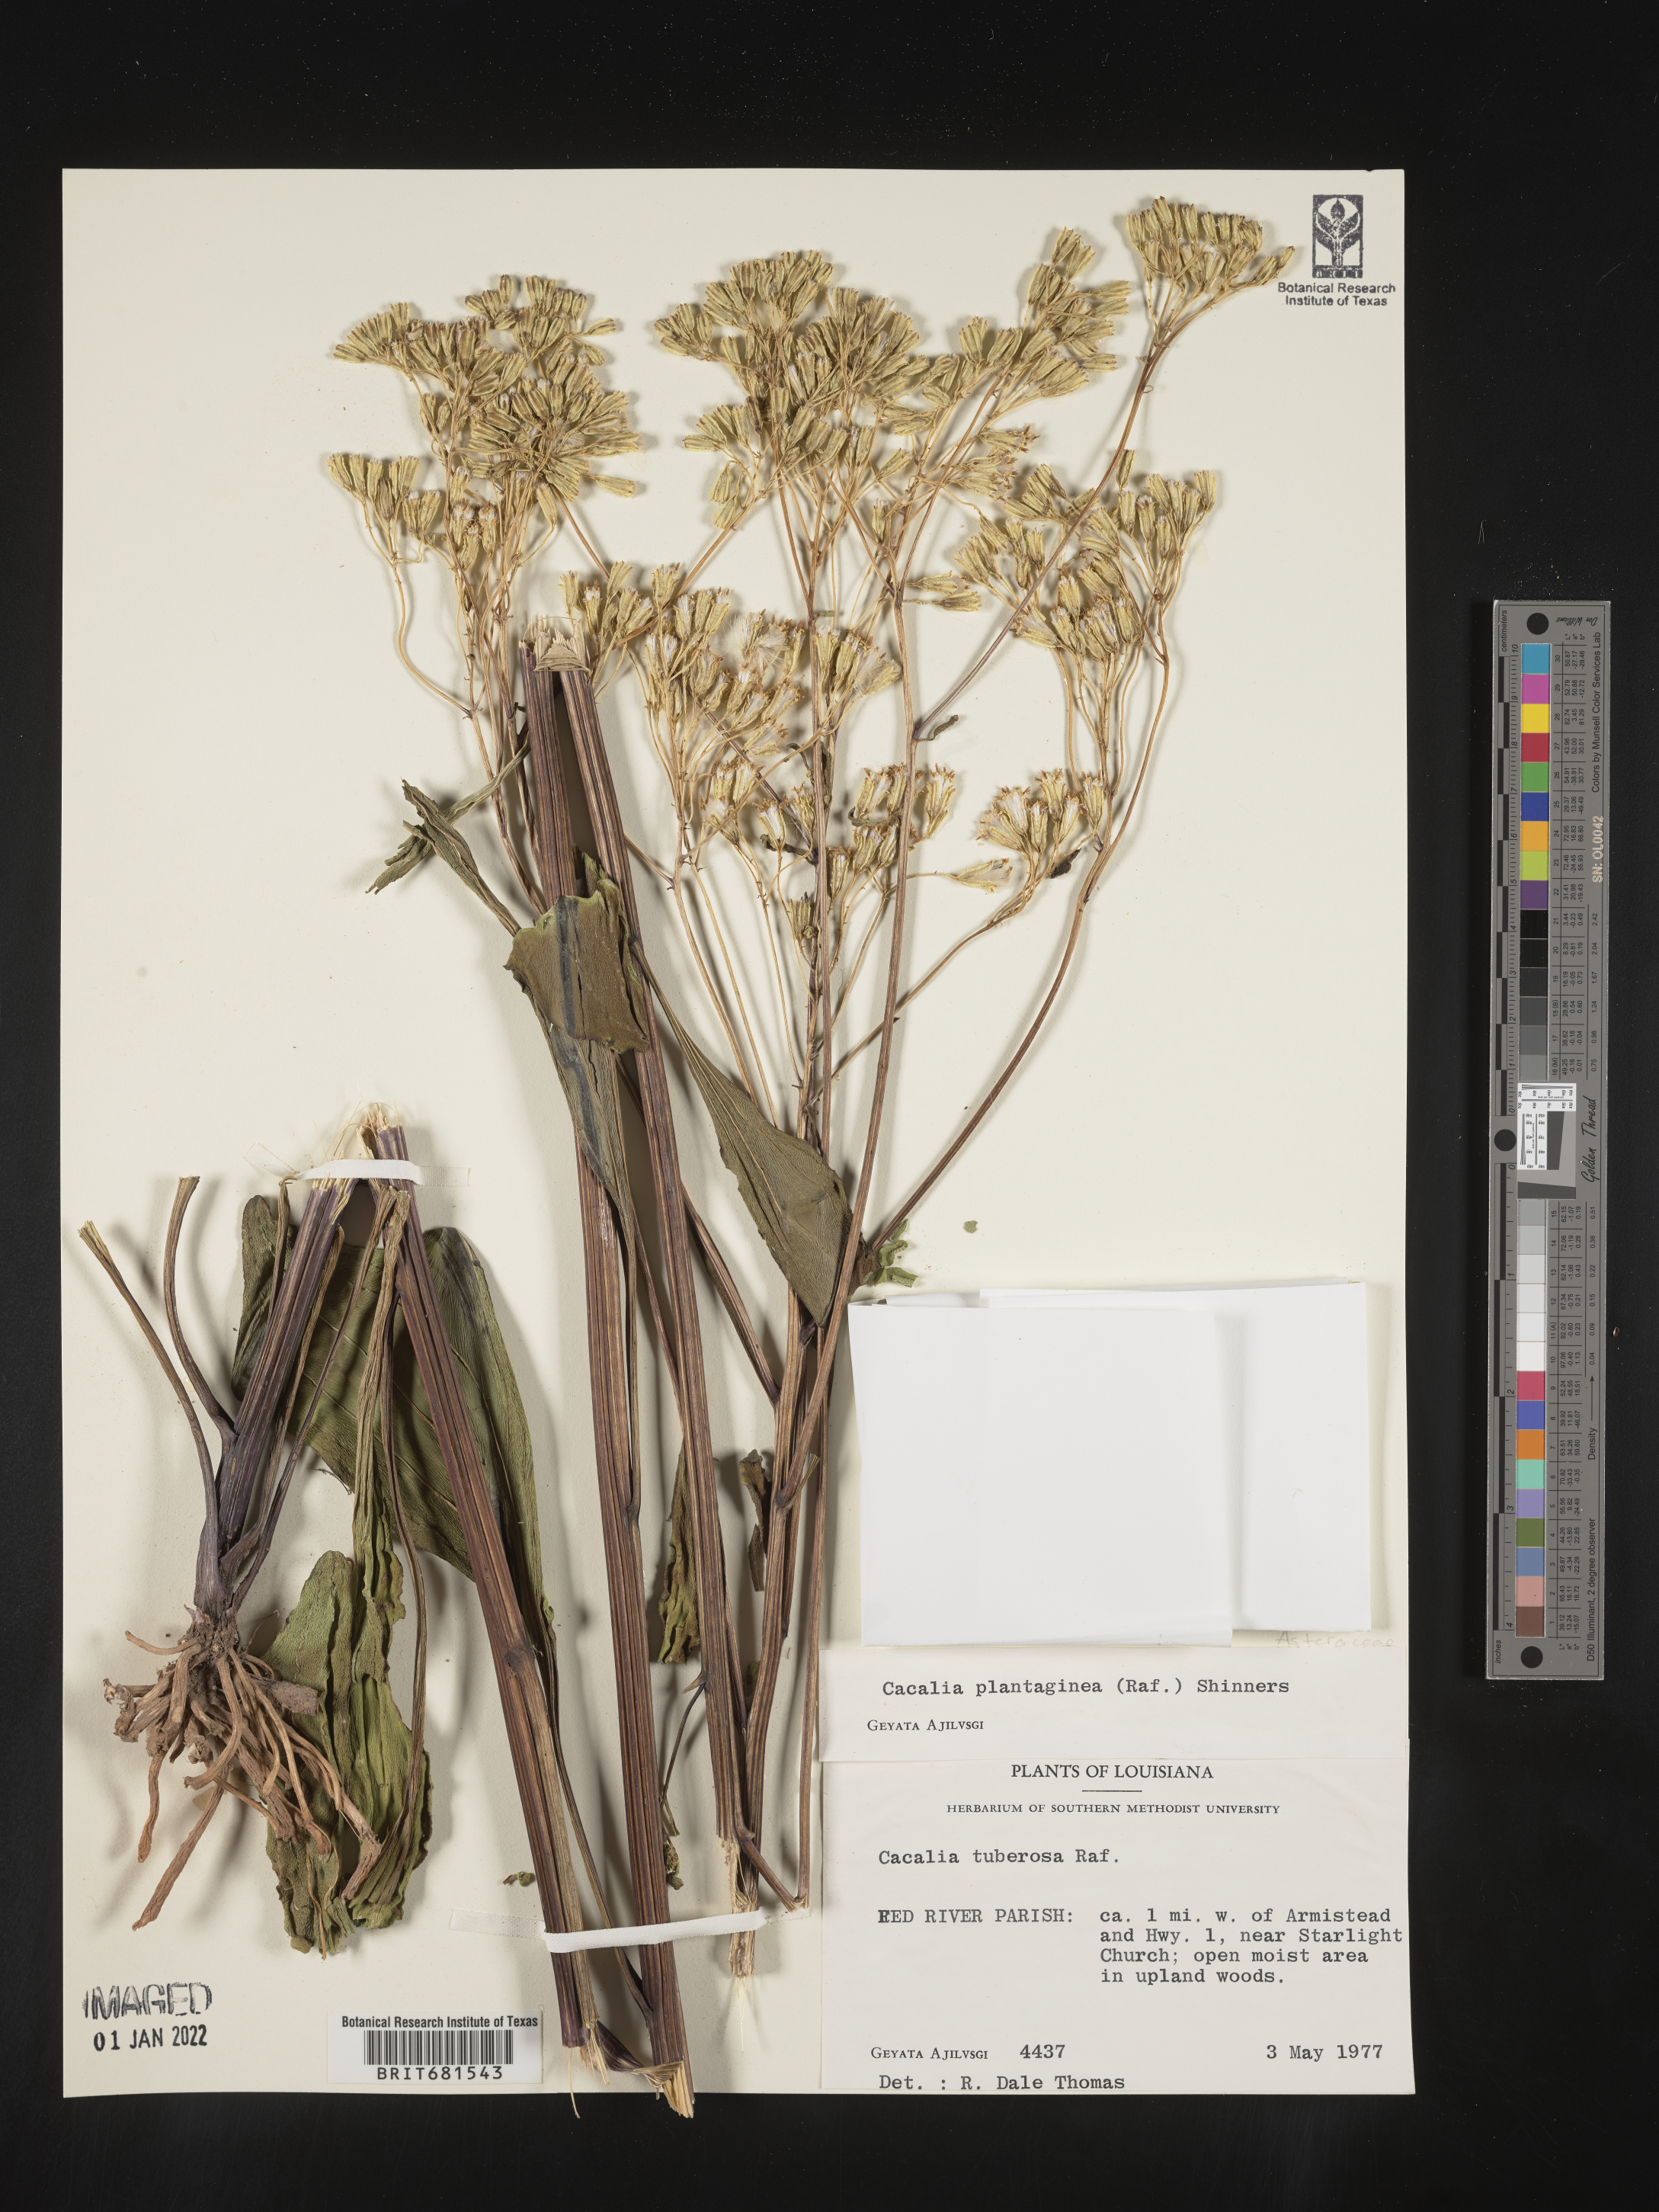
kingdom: Plantae
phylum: Tracheophyta
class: Magnoliopsida
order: Asterales
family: Asteraceae
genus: Arnoglossum
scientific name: Arnoglossum plantagineum
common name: Groove-stemmed indian-plantain
